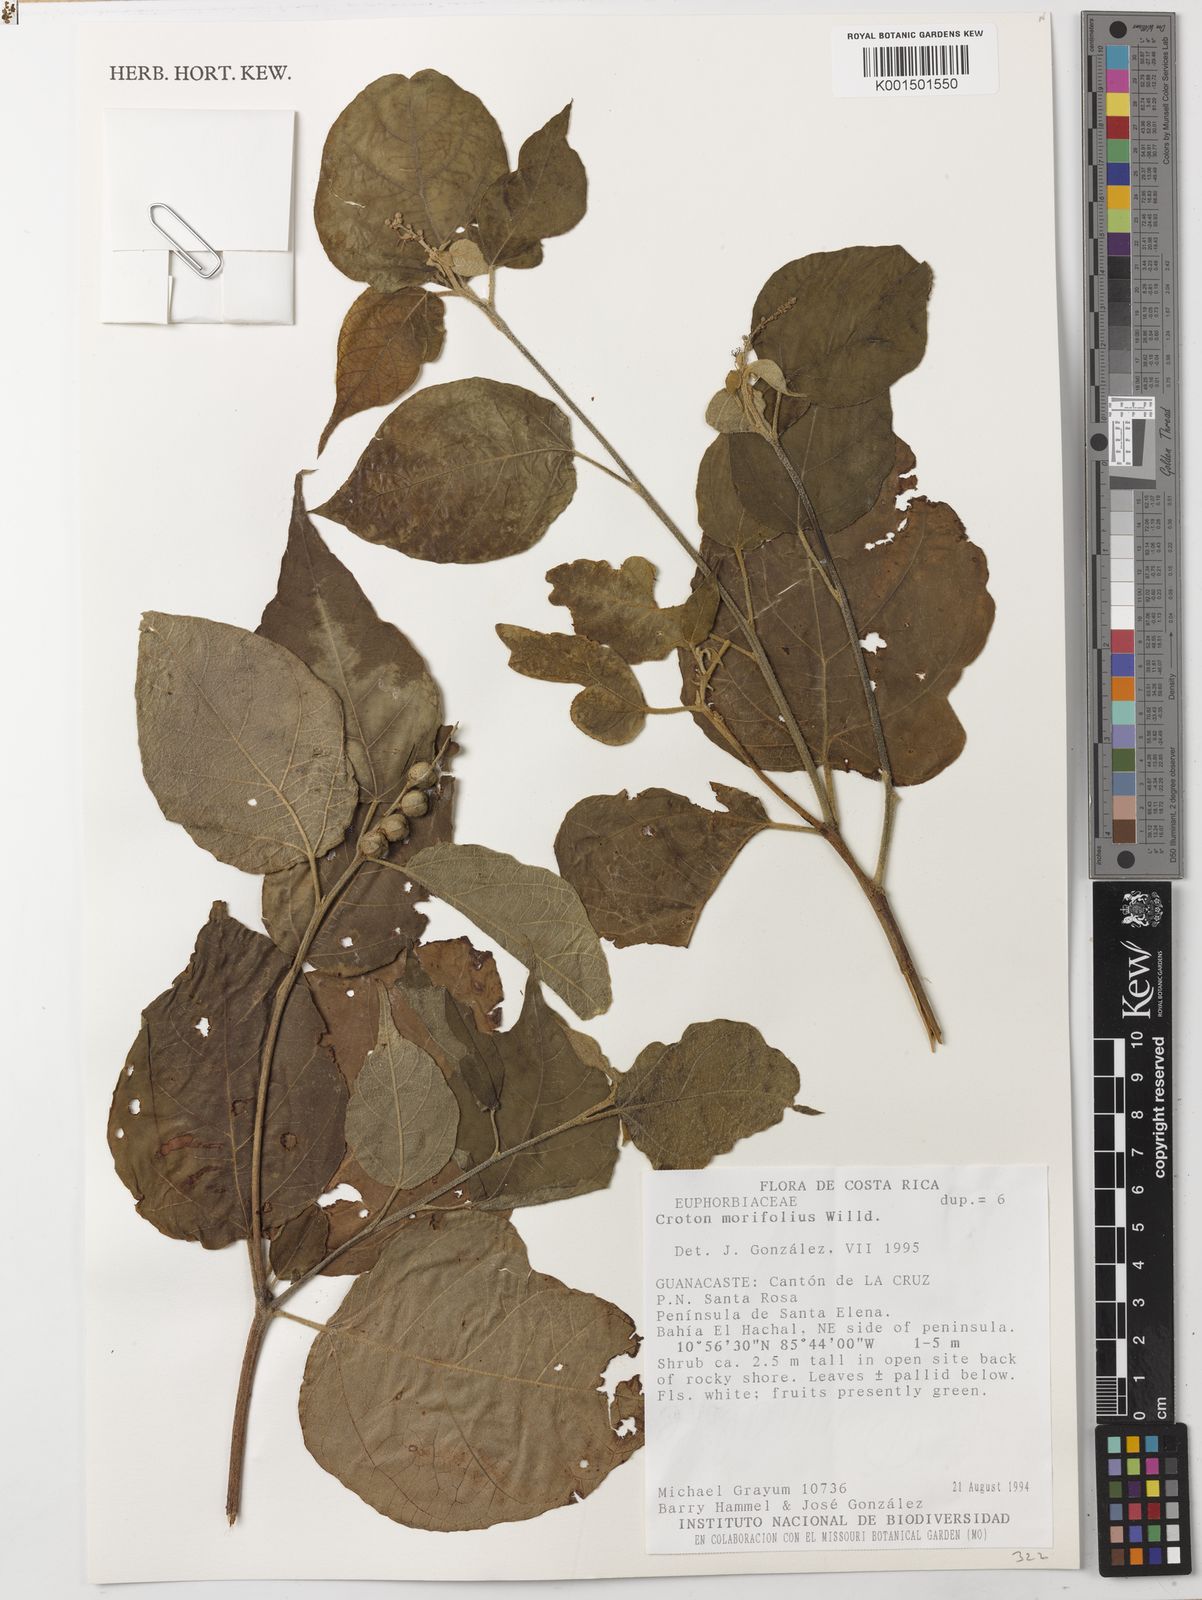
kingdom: Plantae
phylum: Tracheophyta
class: Magnoliopsida
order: Malpighiales
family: Euphorbiaceae
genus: Croton
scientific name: Croton morifolius
